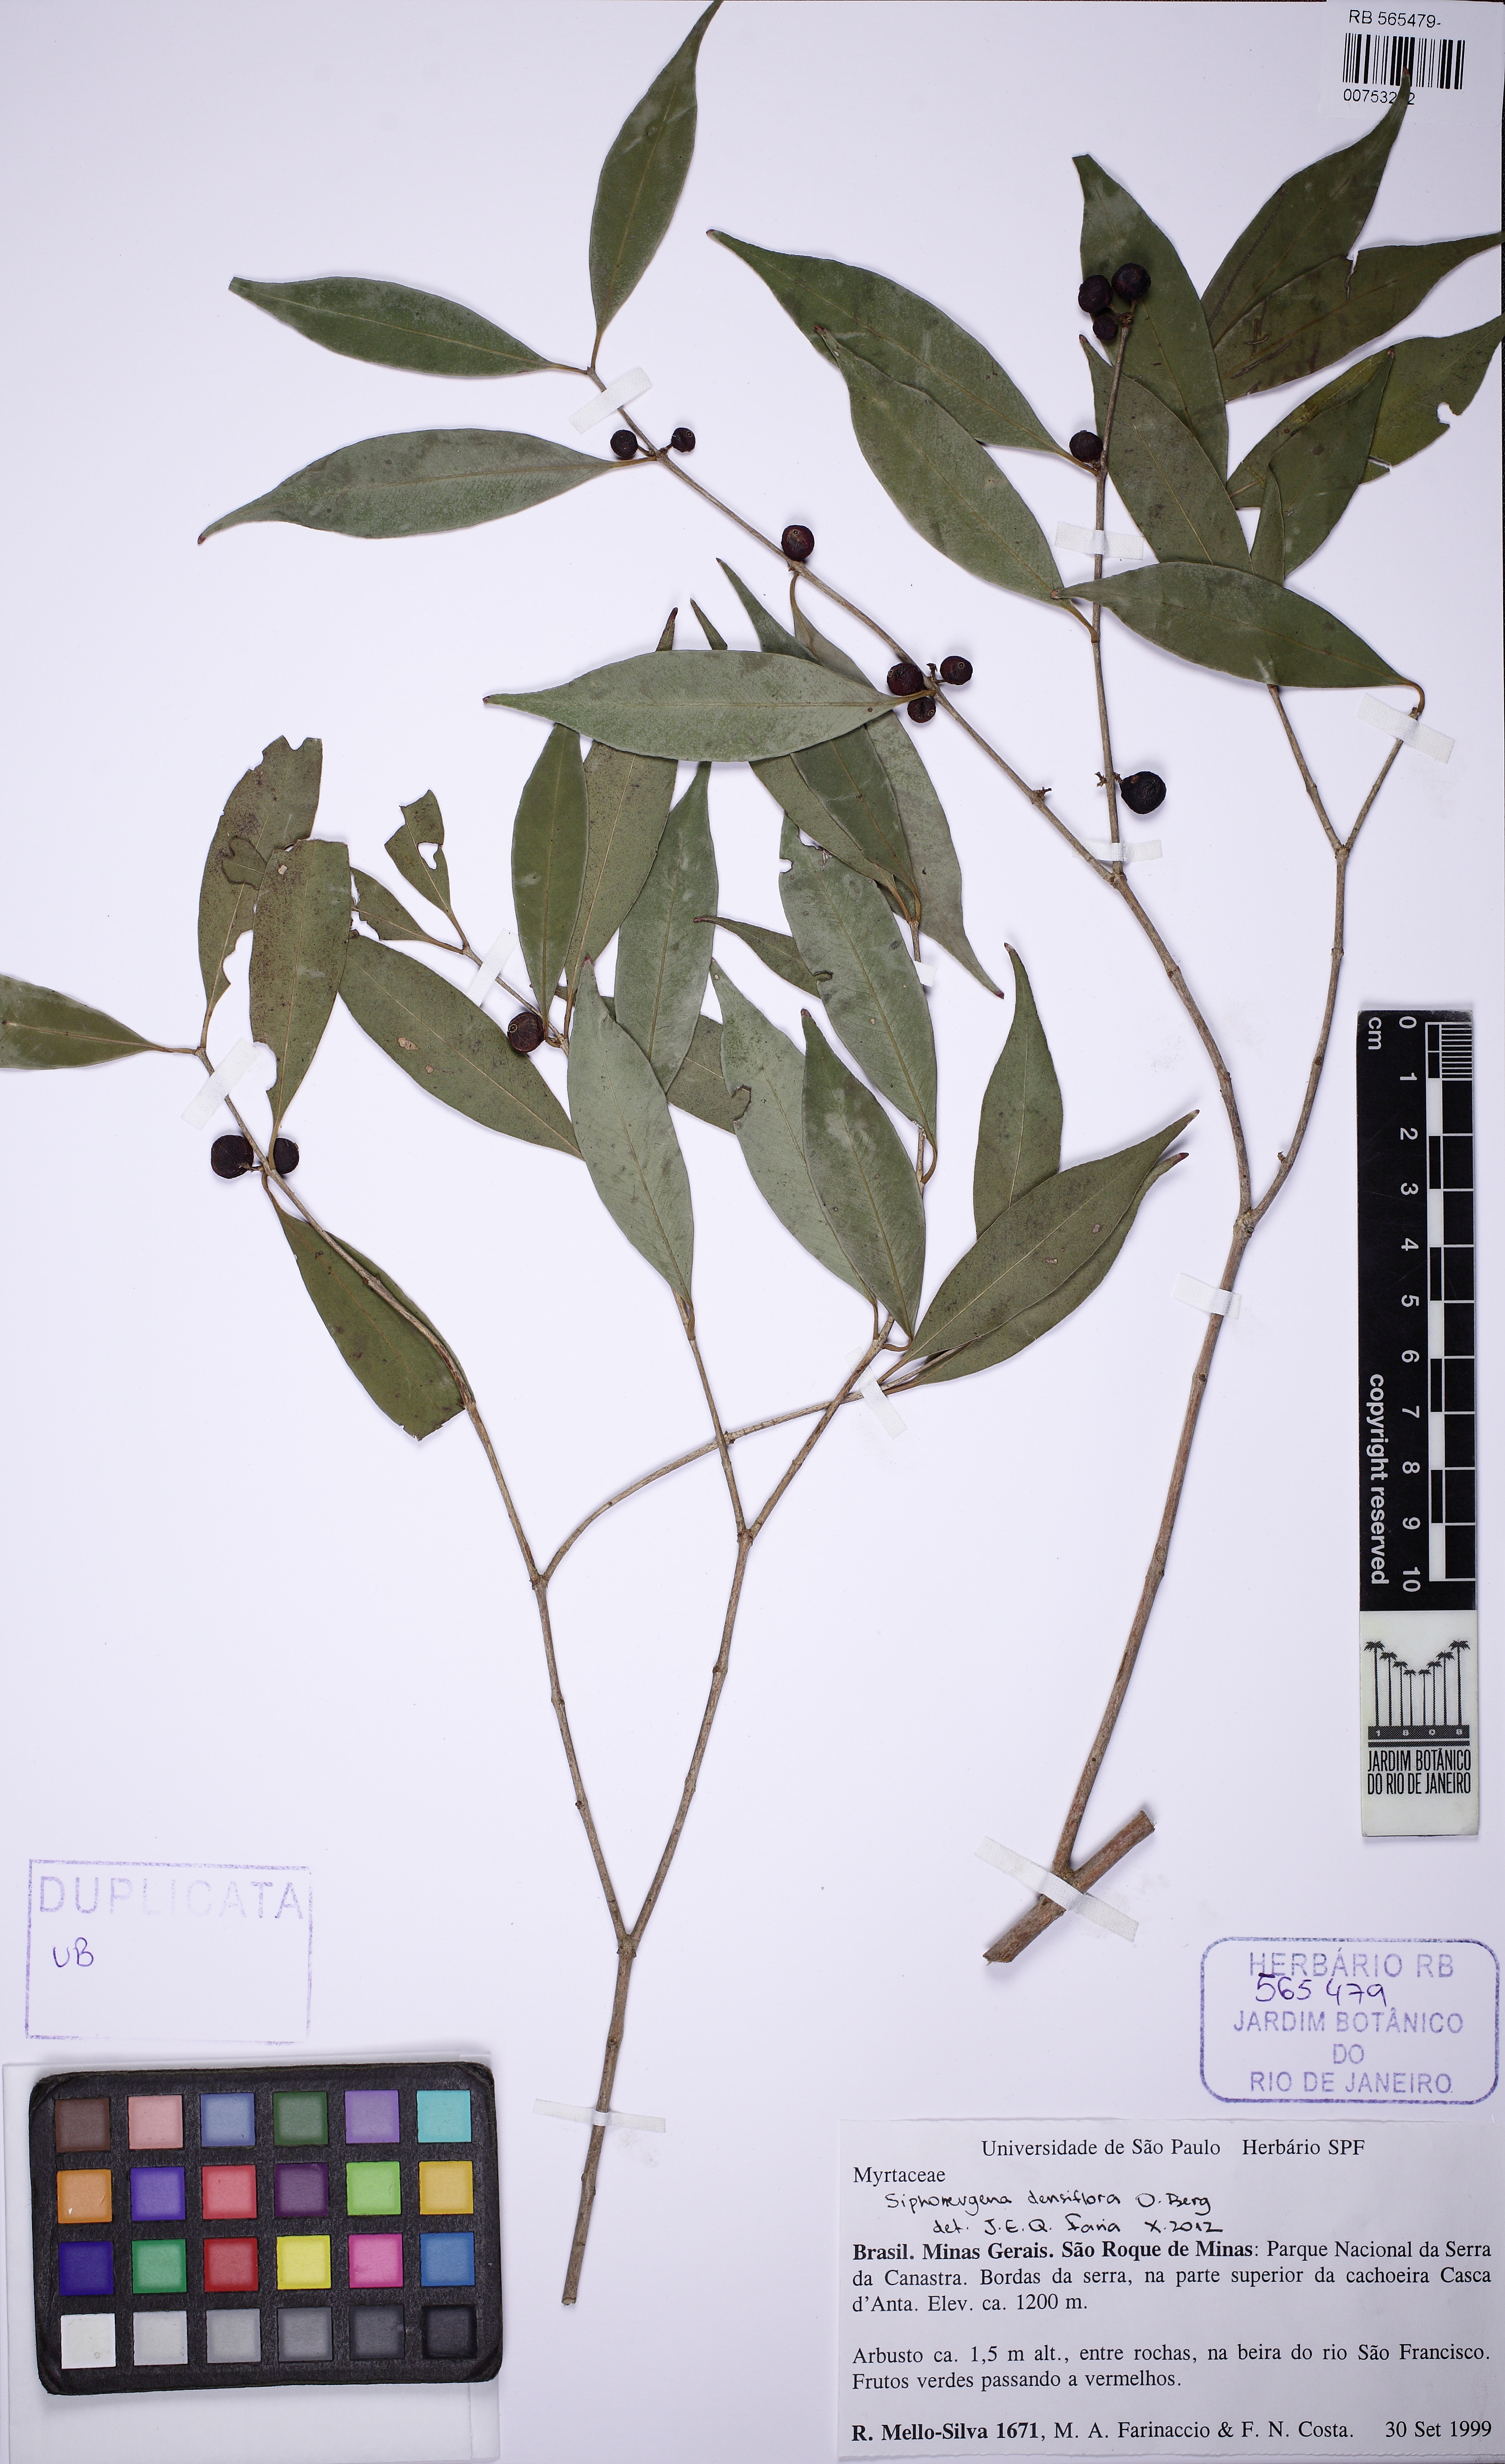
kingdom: Plantae
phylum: Tracheophyta
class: Magnoliopsida
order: Myrtales
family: Myrtaceae
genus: Siphoneugena
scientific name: Siphoneugena densiflora
